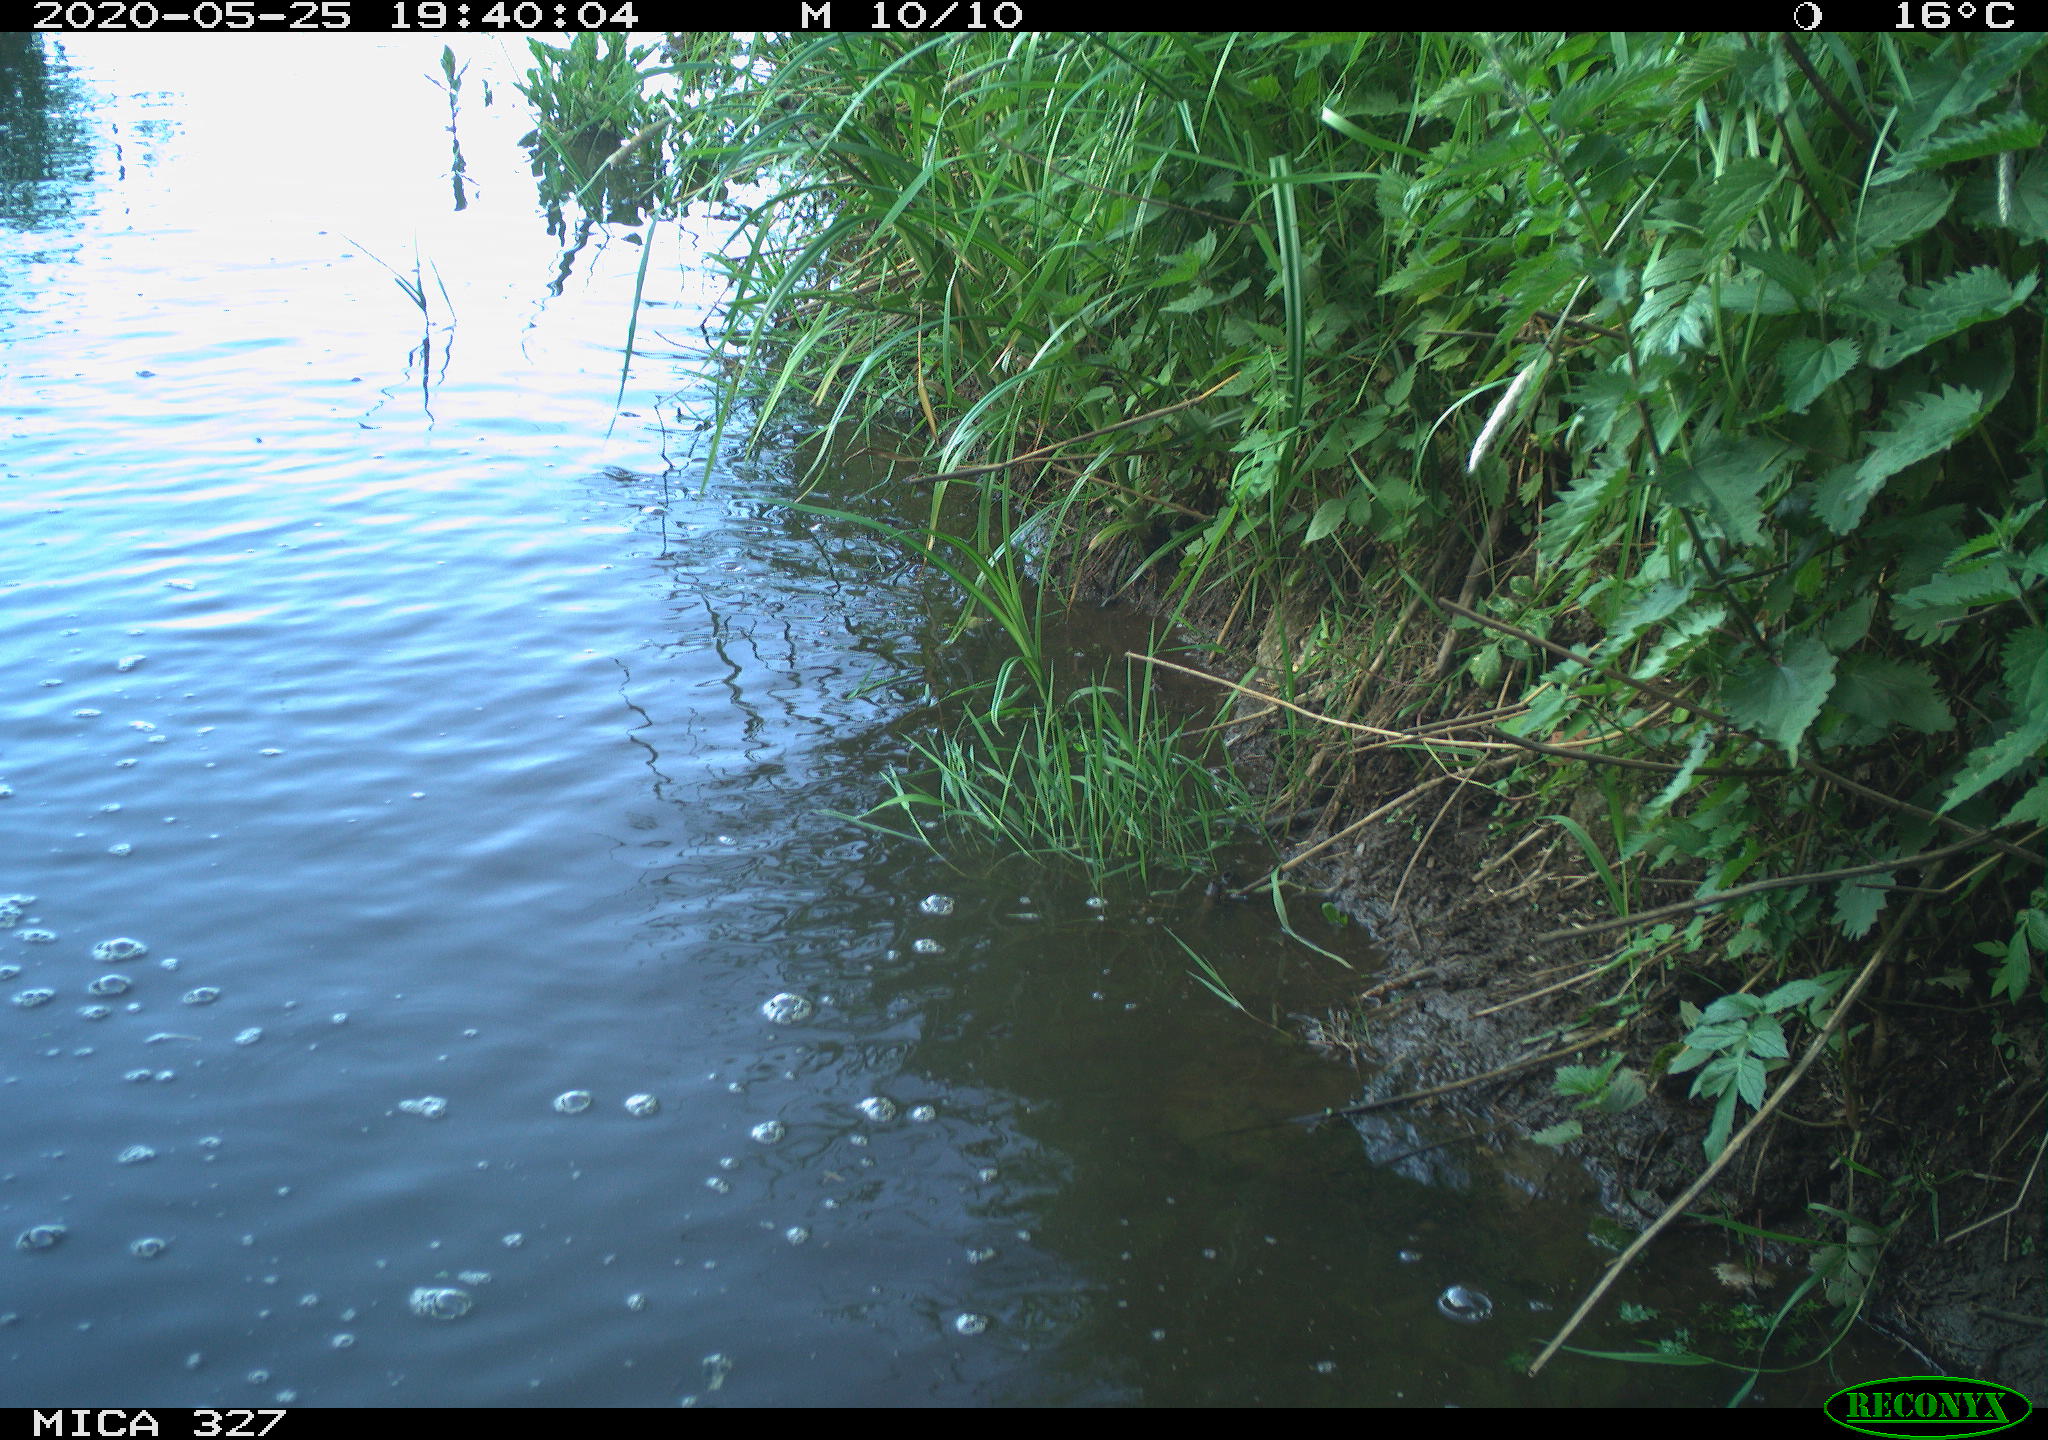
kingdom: Animalia
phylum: Chordata
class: Aves
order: Anseriformes
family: Anatidae
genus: Anas
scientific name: Anas platyrhynchos
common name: Mallard
